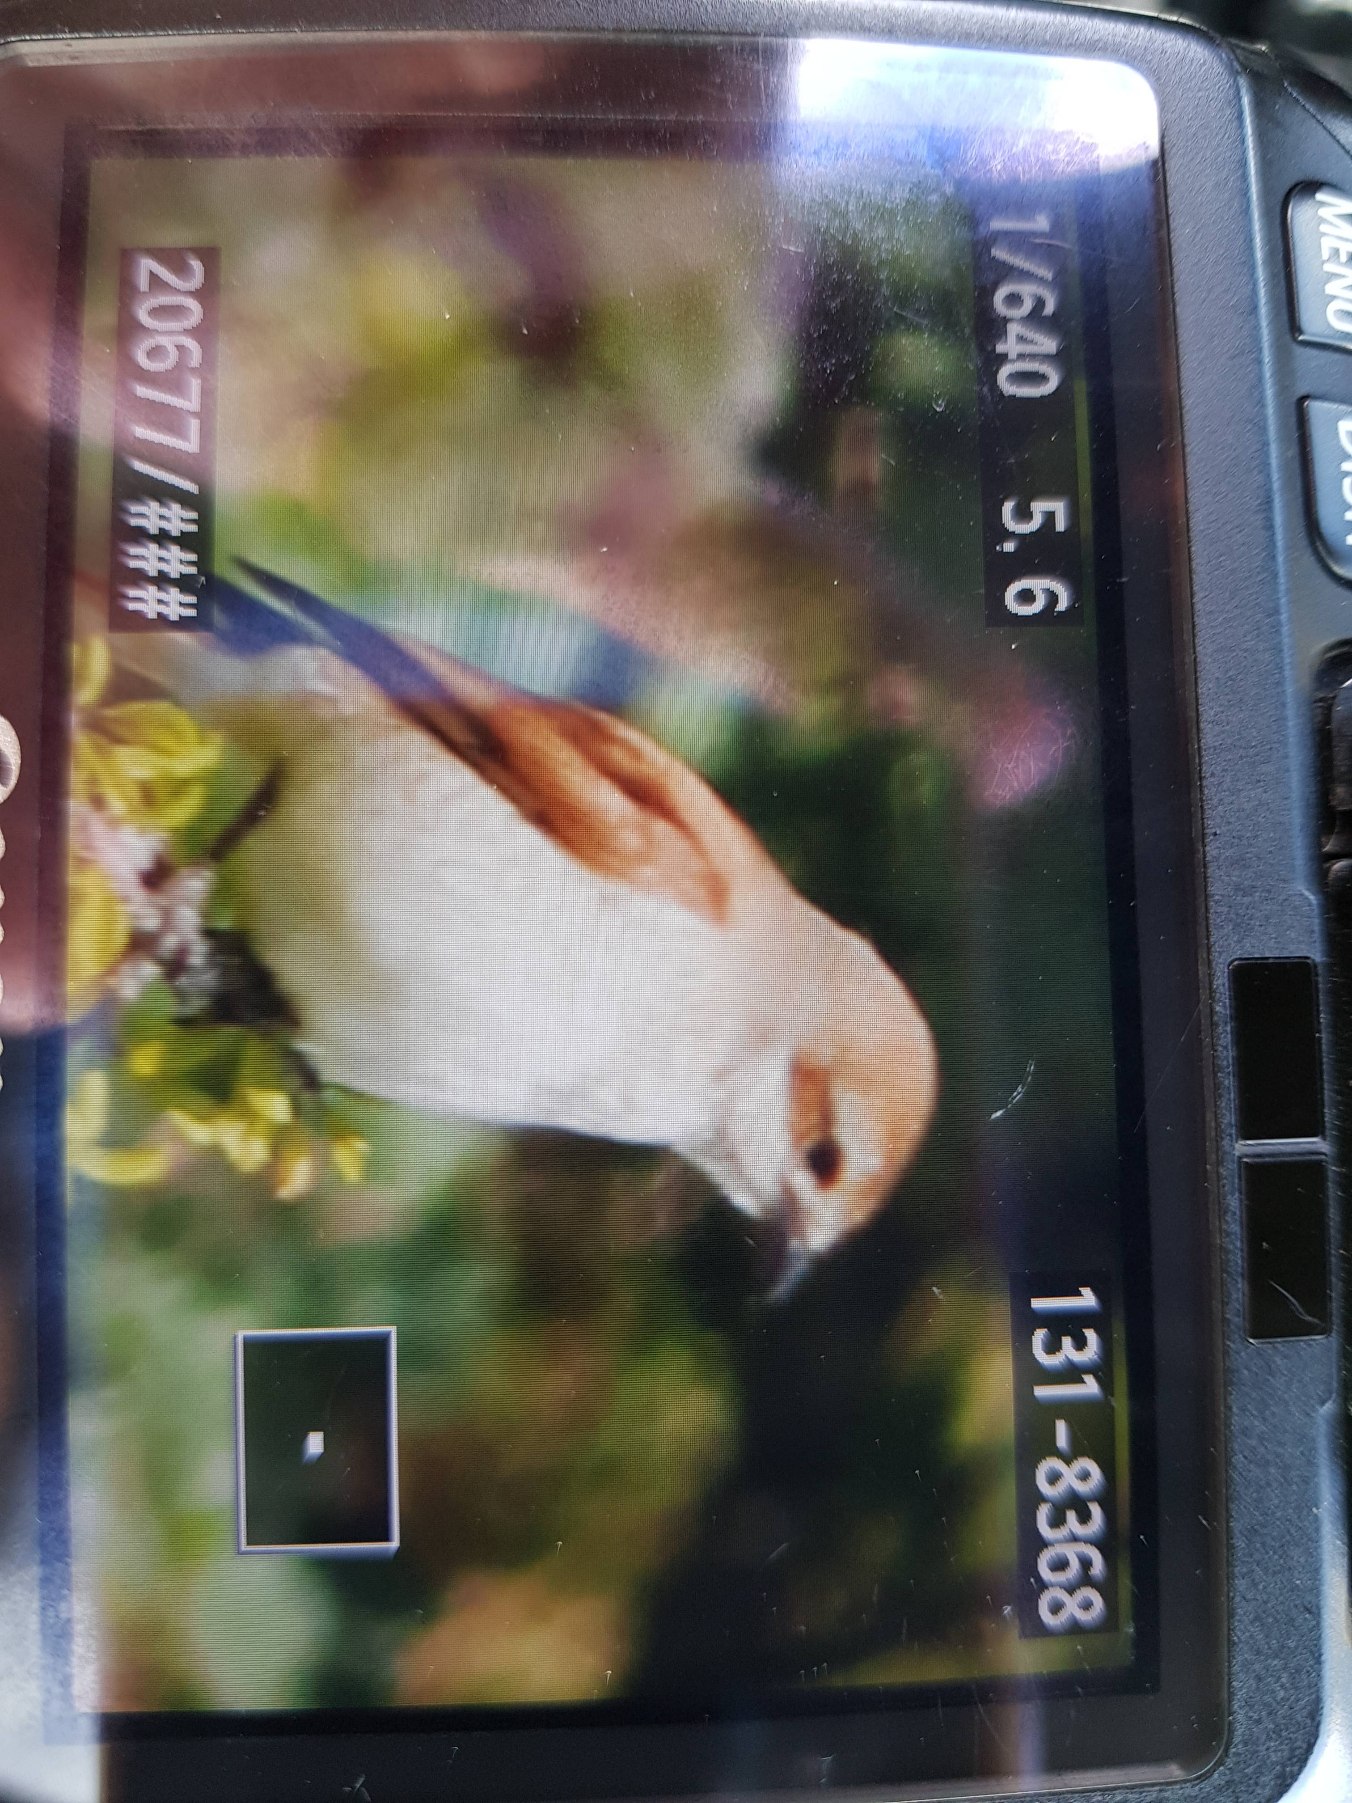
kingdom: Animalia
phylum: Chordata
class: Aves
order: Passeriformes
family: Laniidae
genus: Lanius
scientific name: Lanius collurio
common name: Rødrygget tornskade
